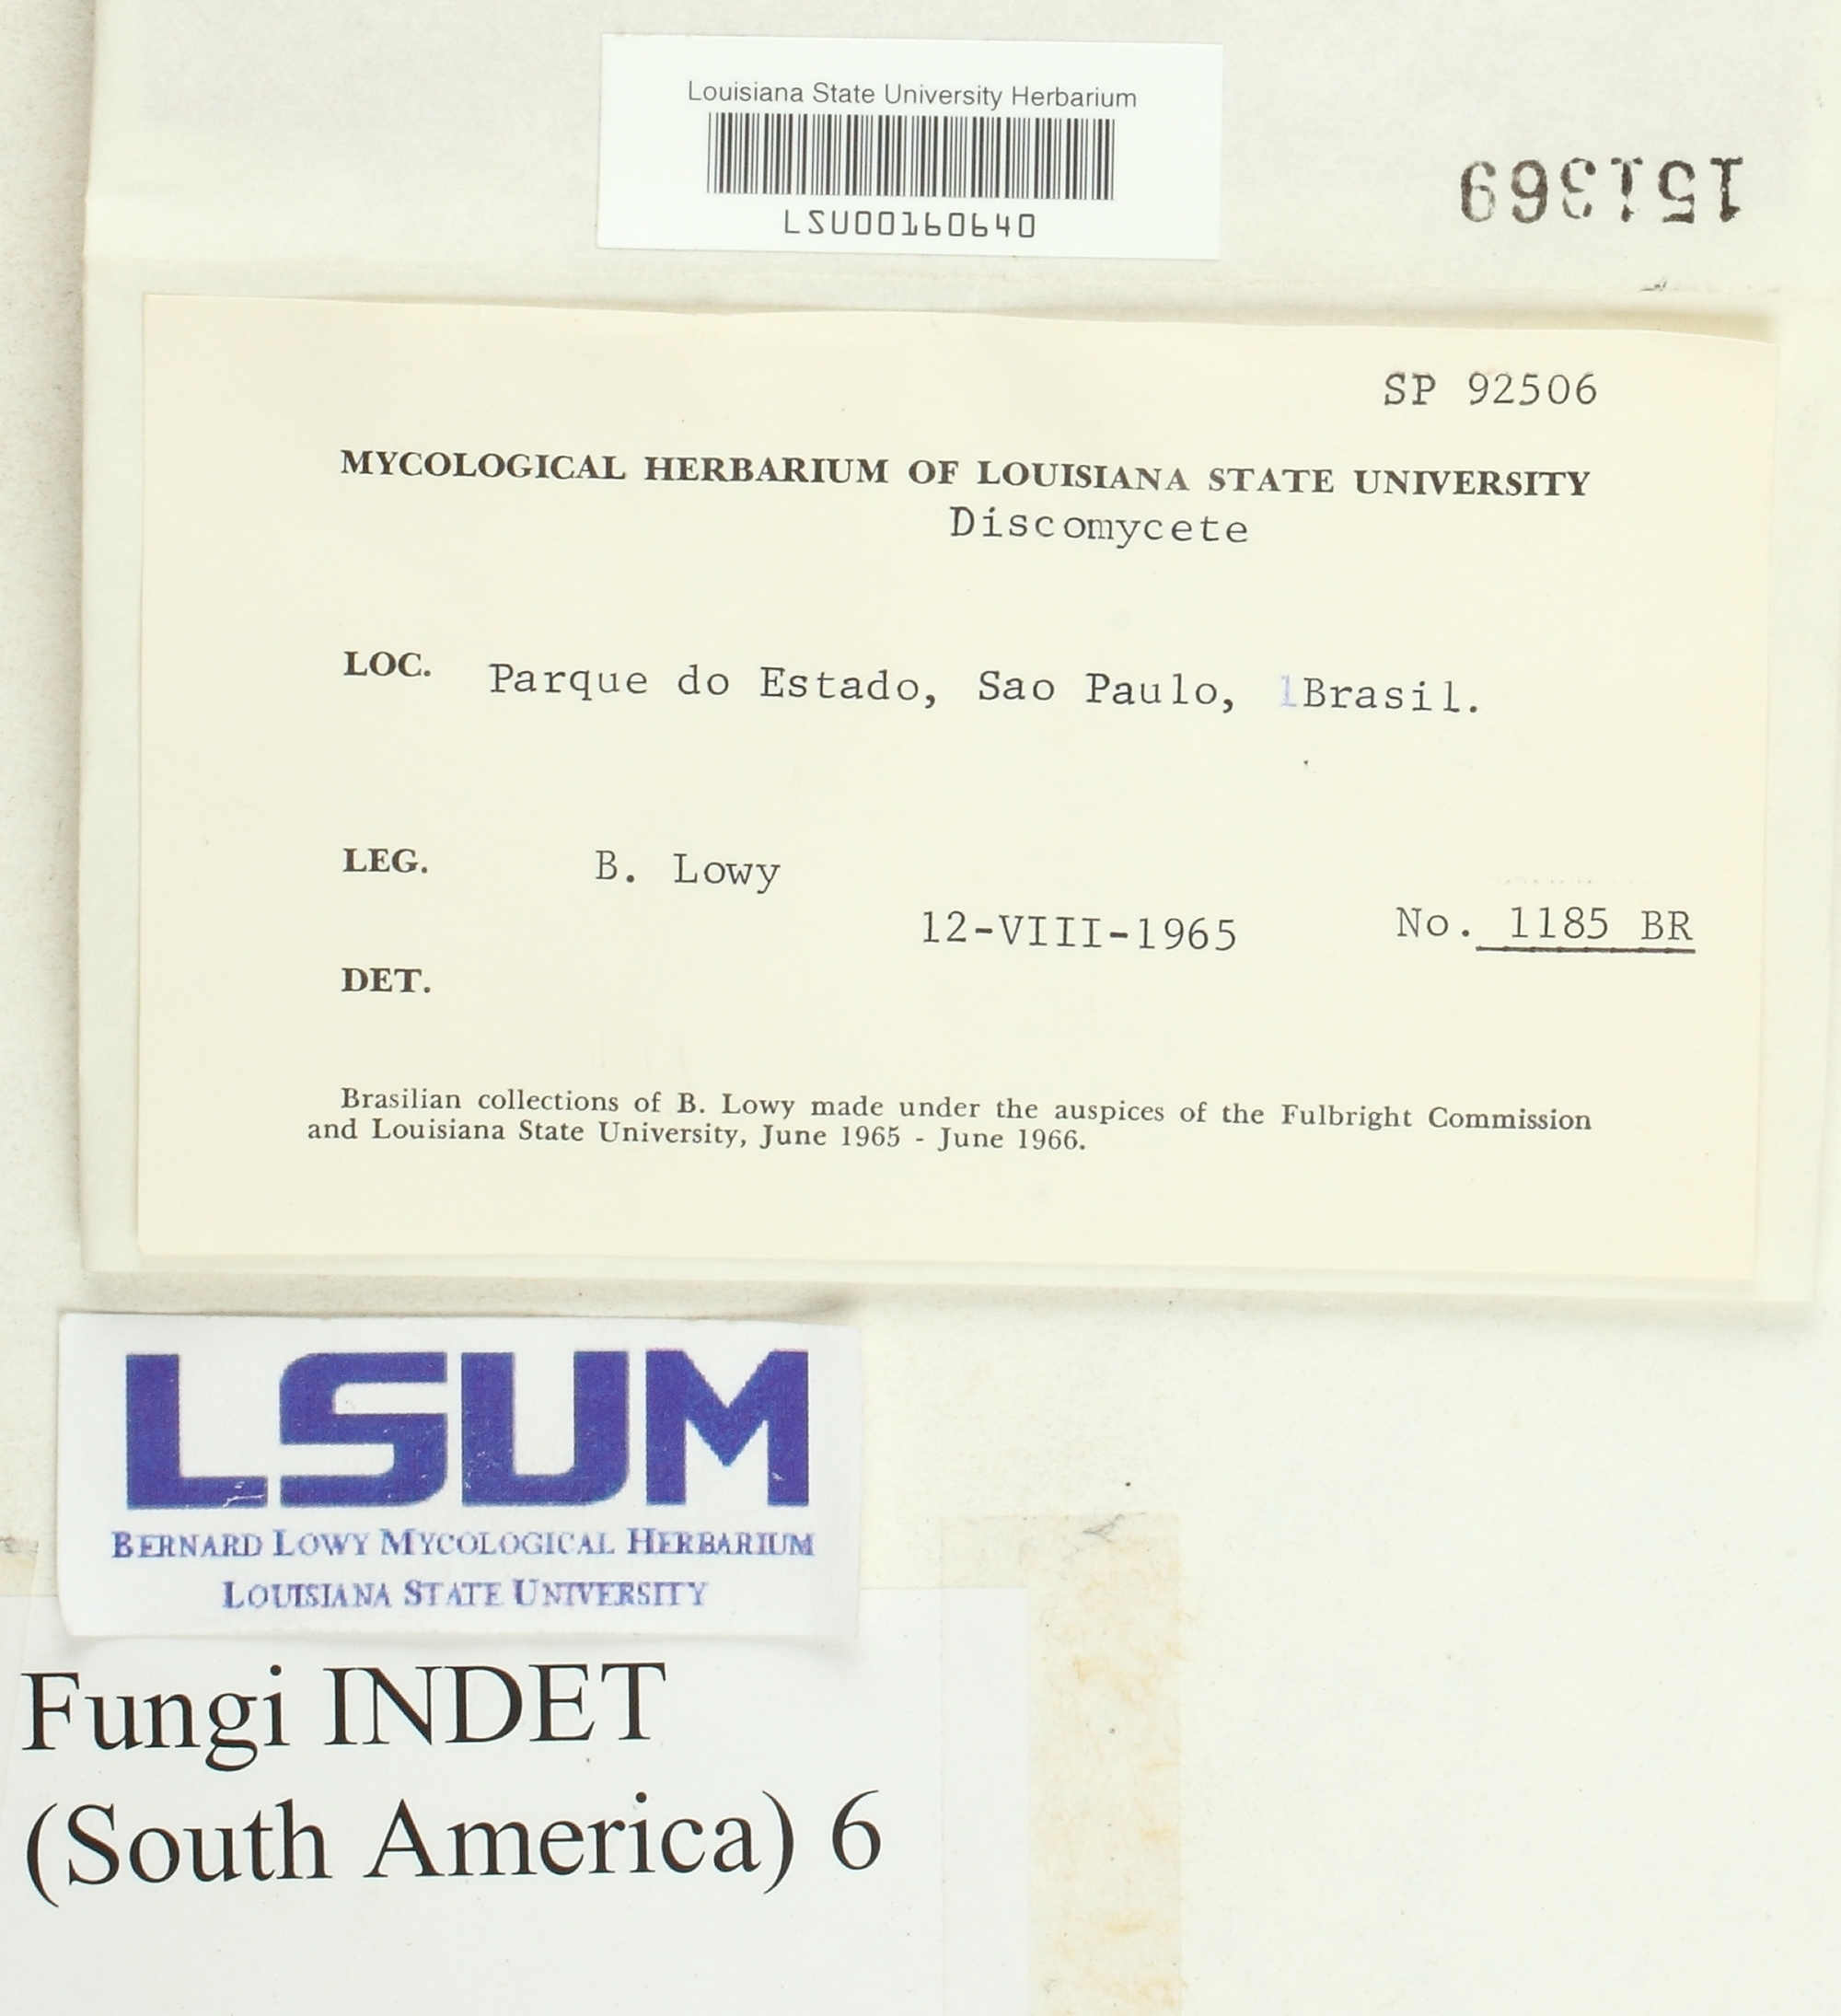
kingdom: Fungi
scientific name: Fungi
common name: Fungi
